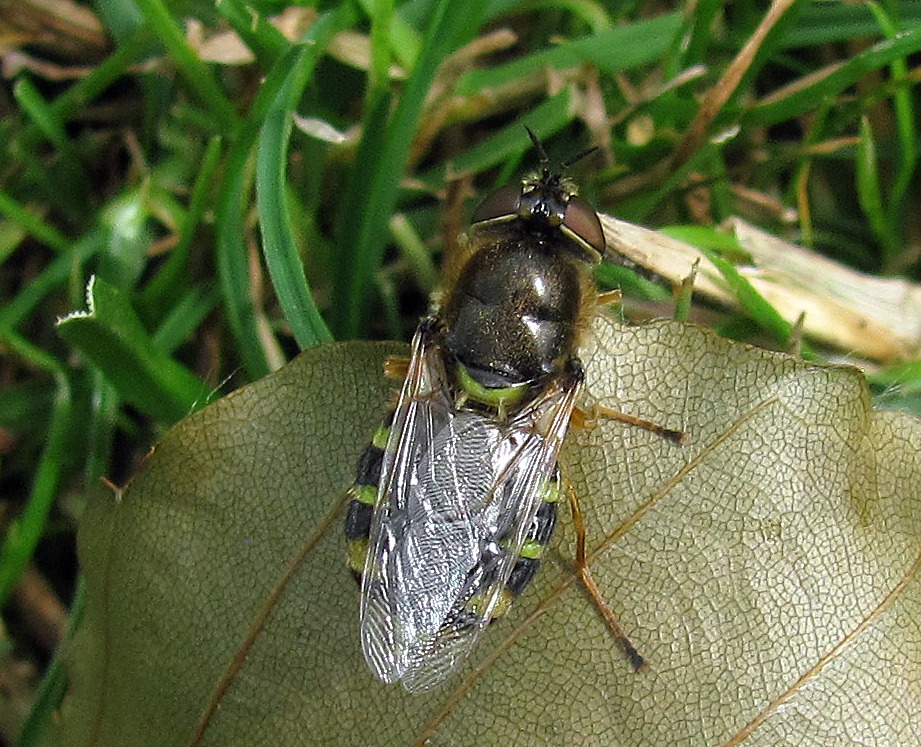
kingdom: Animalia
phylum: Arthropoda
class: Insecta
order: Diptera
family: Stratiomyidae
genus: Odontomyia
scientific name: Odontomyia ornata
